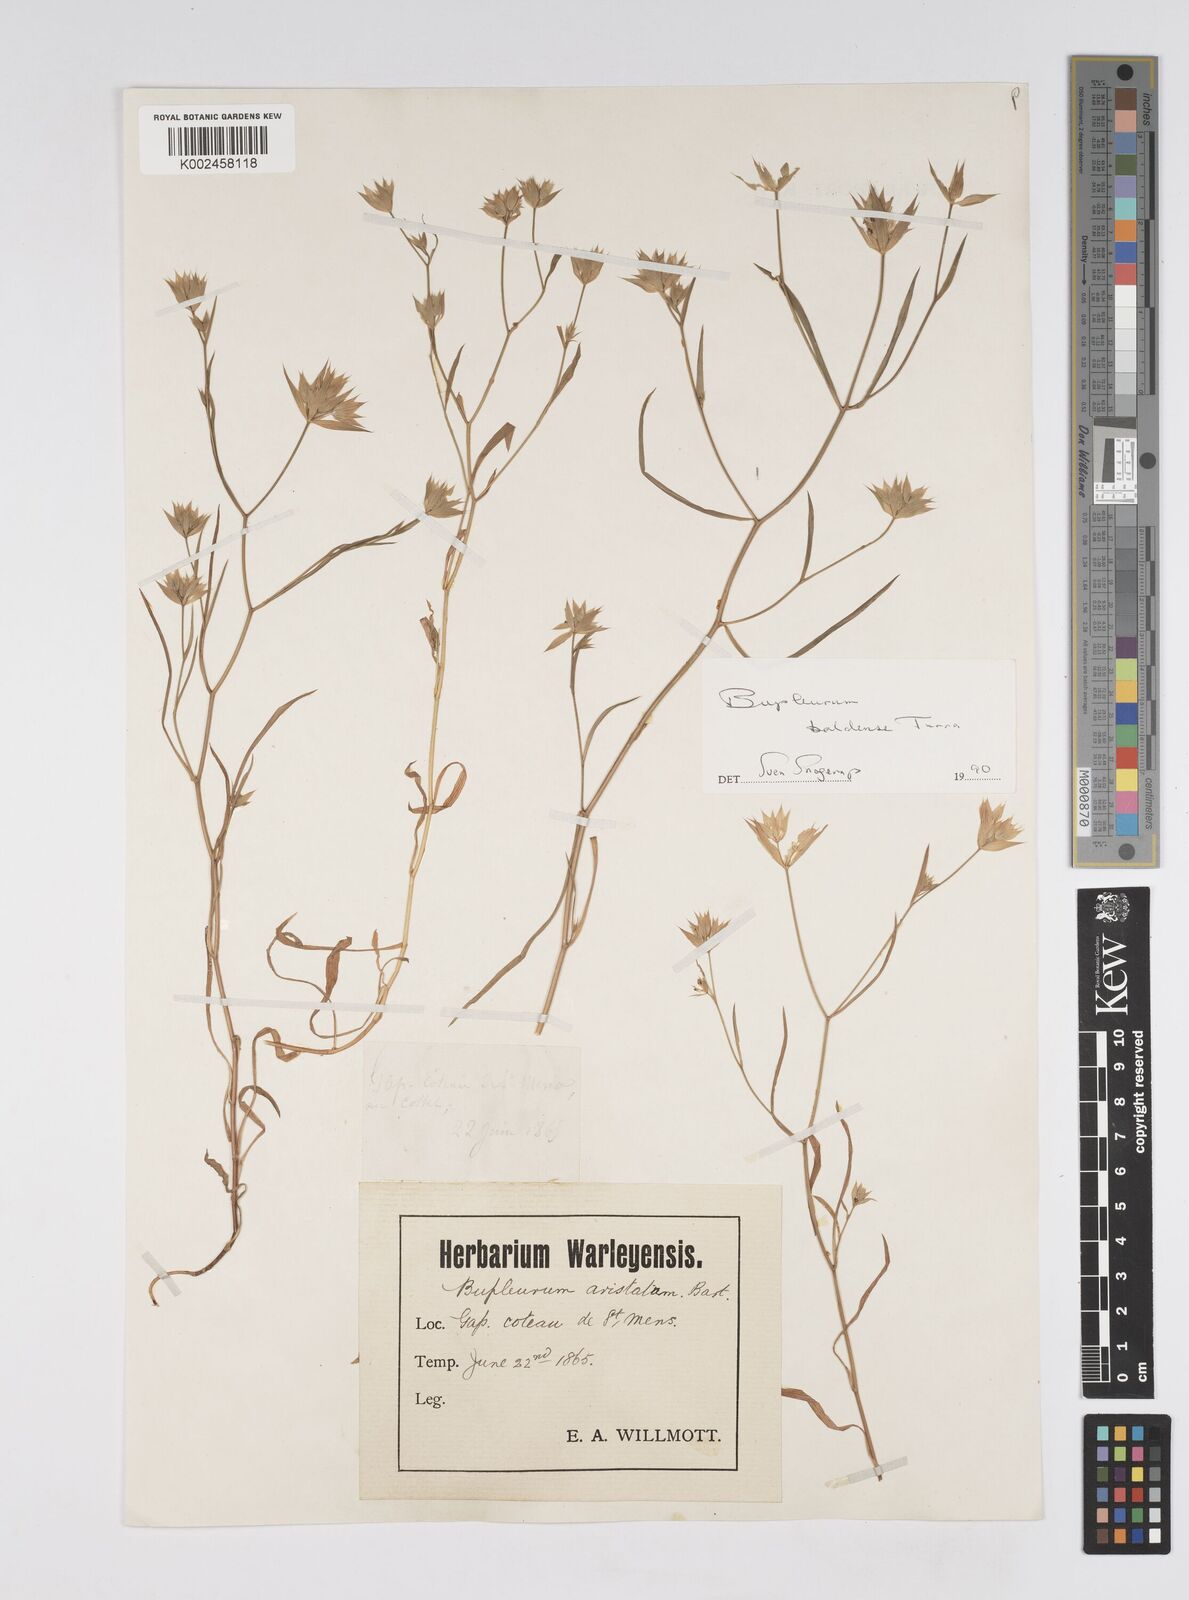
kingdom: Plantae
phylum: Tracheophyta
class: Magnoliopsida
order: Apiales
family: Apiaceae
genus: Bupleurum
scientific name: Bupleurum baldense
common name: Small hare's-ear
